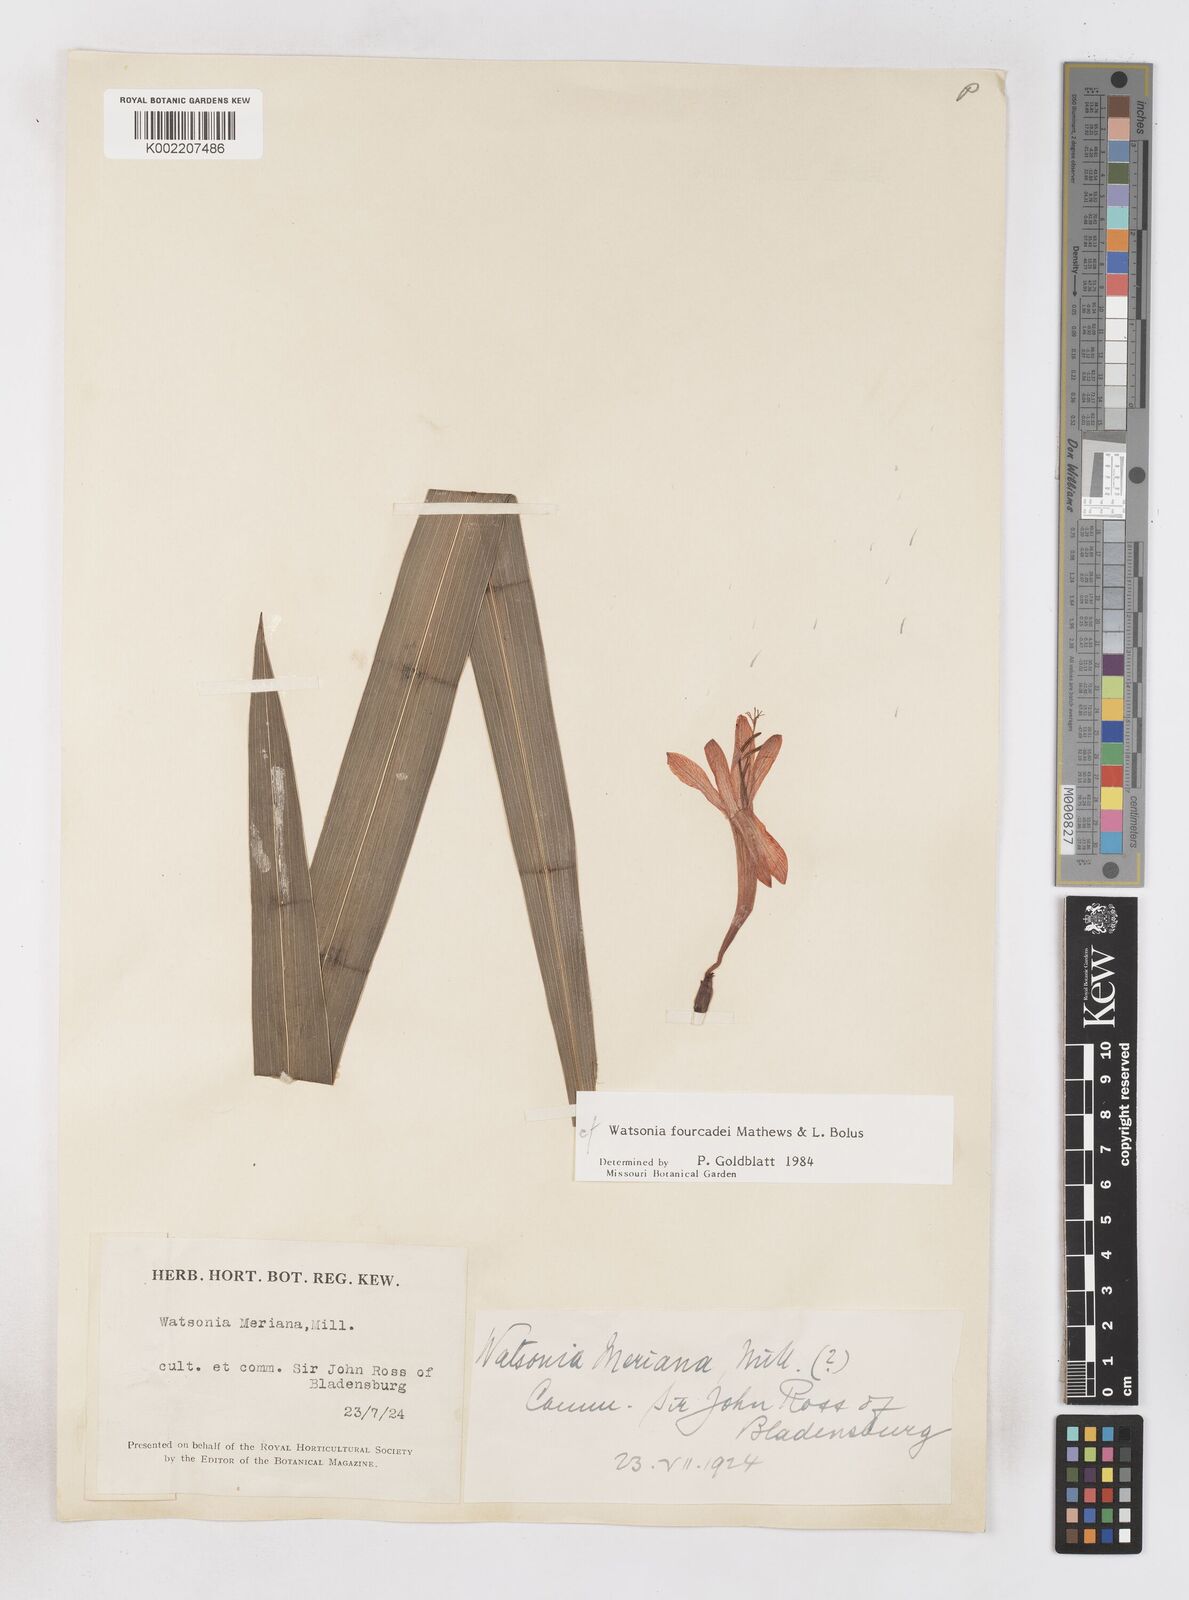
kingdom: Plantae
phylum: Tracheophyta
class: Liliopsida
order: Asparagales
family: Iridaceae
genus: Watsonia
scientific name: Watsonia fourcadei
